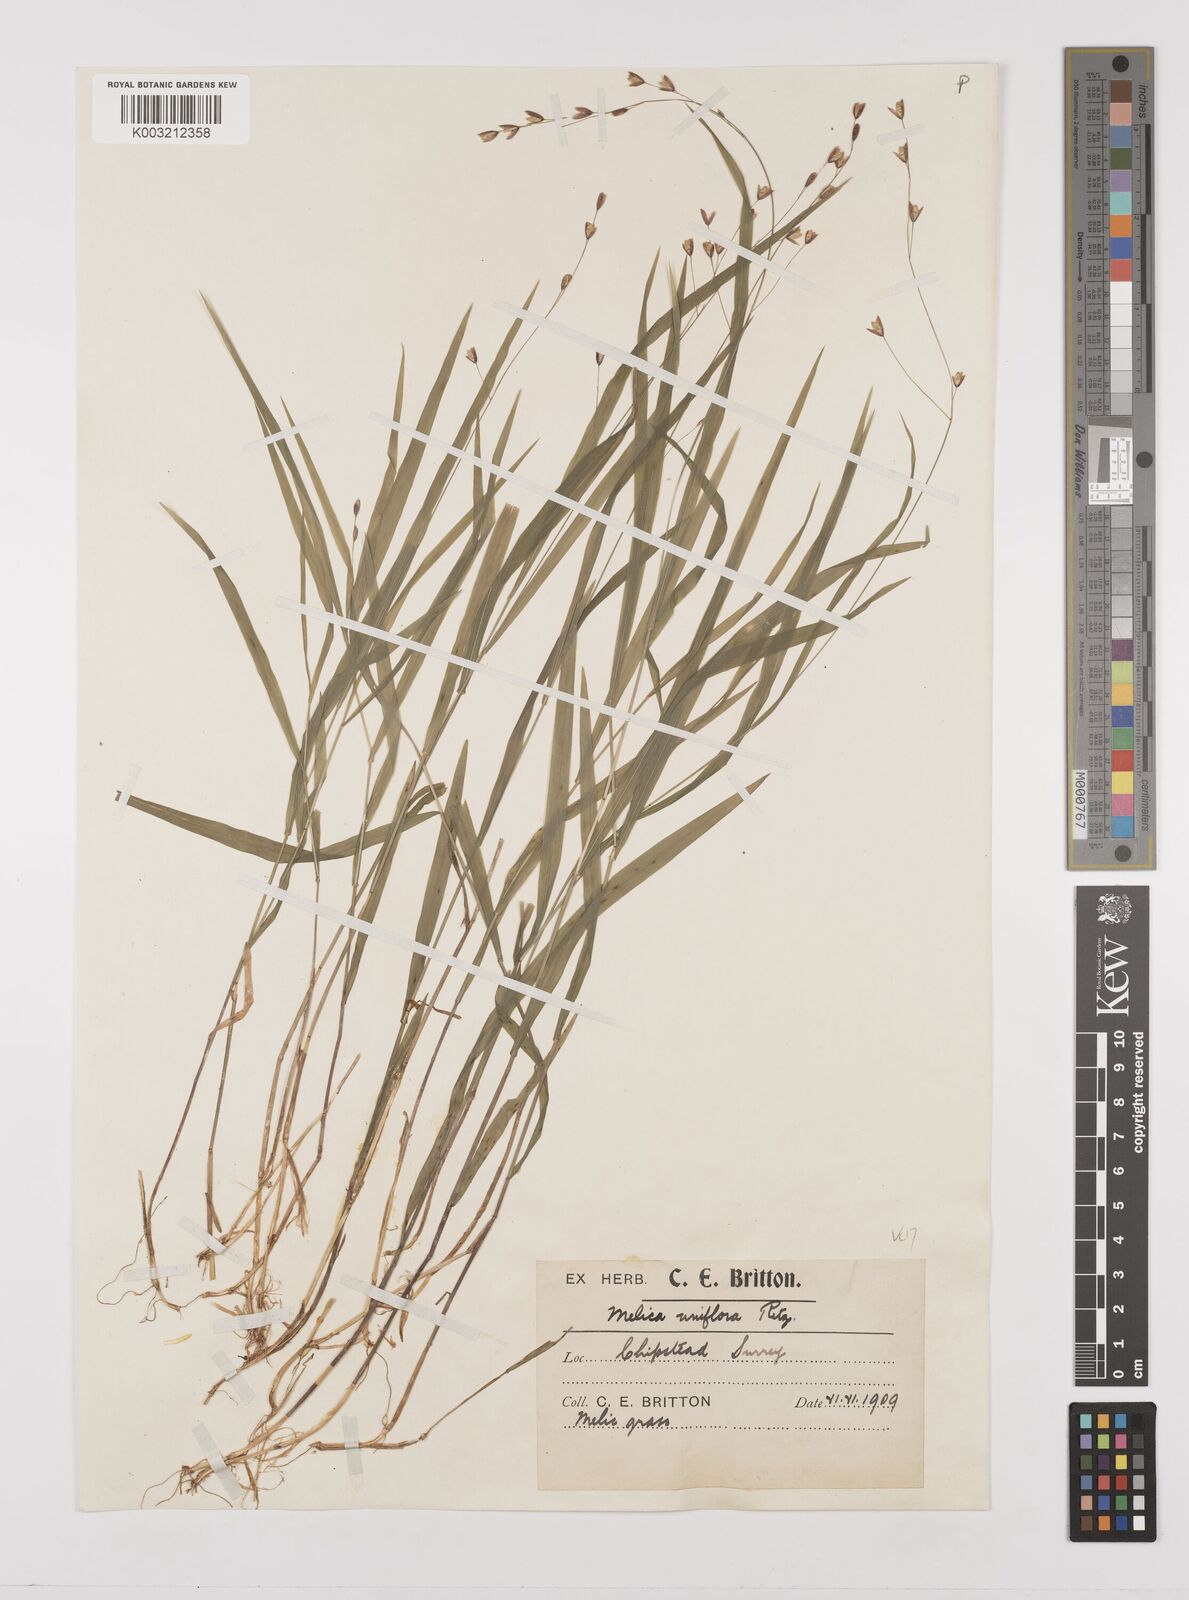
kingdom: Plantae
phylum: Tracheophyta
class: Liliopsida
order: Poales
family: Poaceae
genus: Melica
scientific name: Melica uniflora
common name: Wood melick
